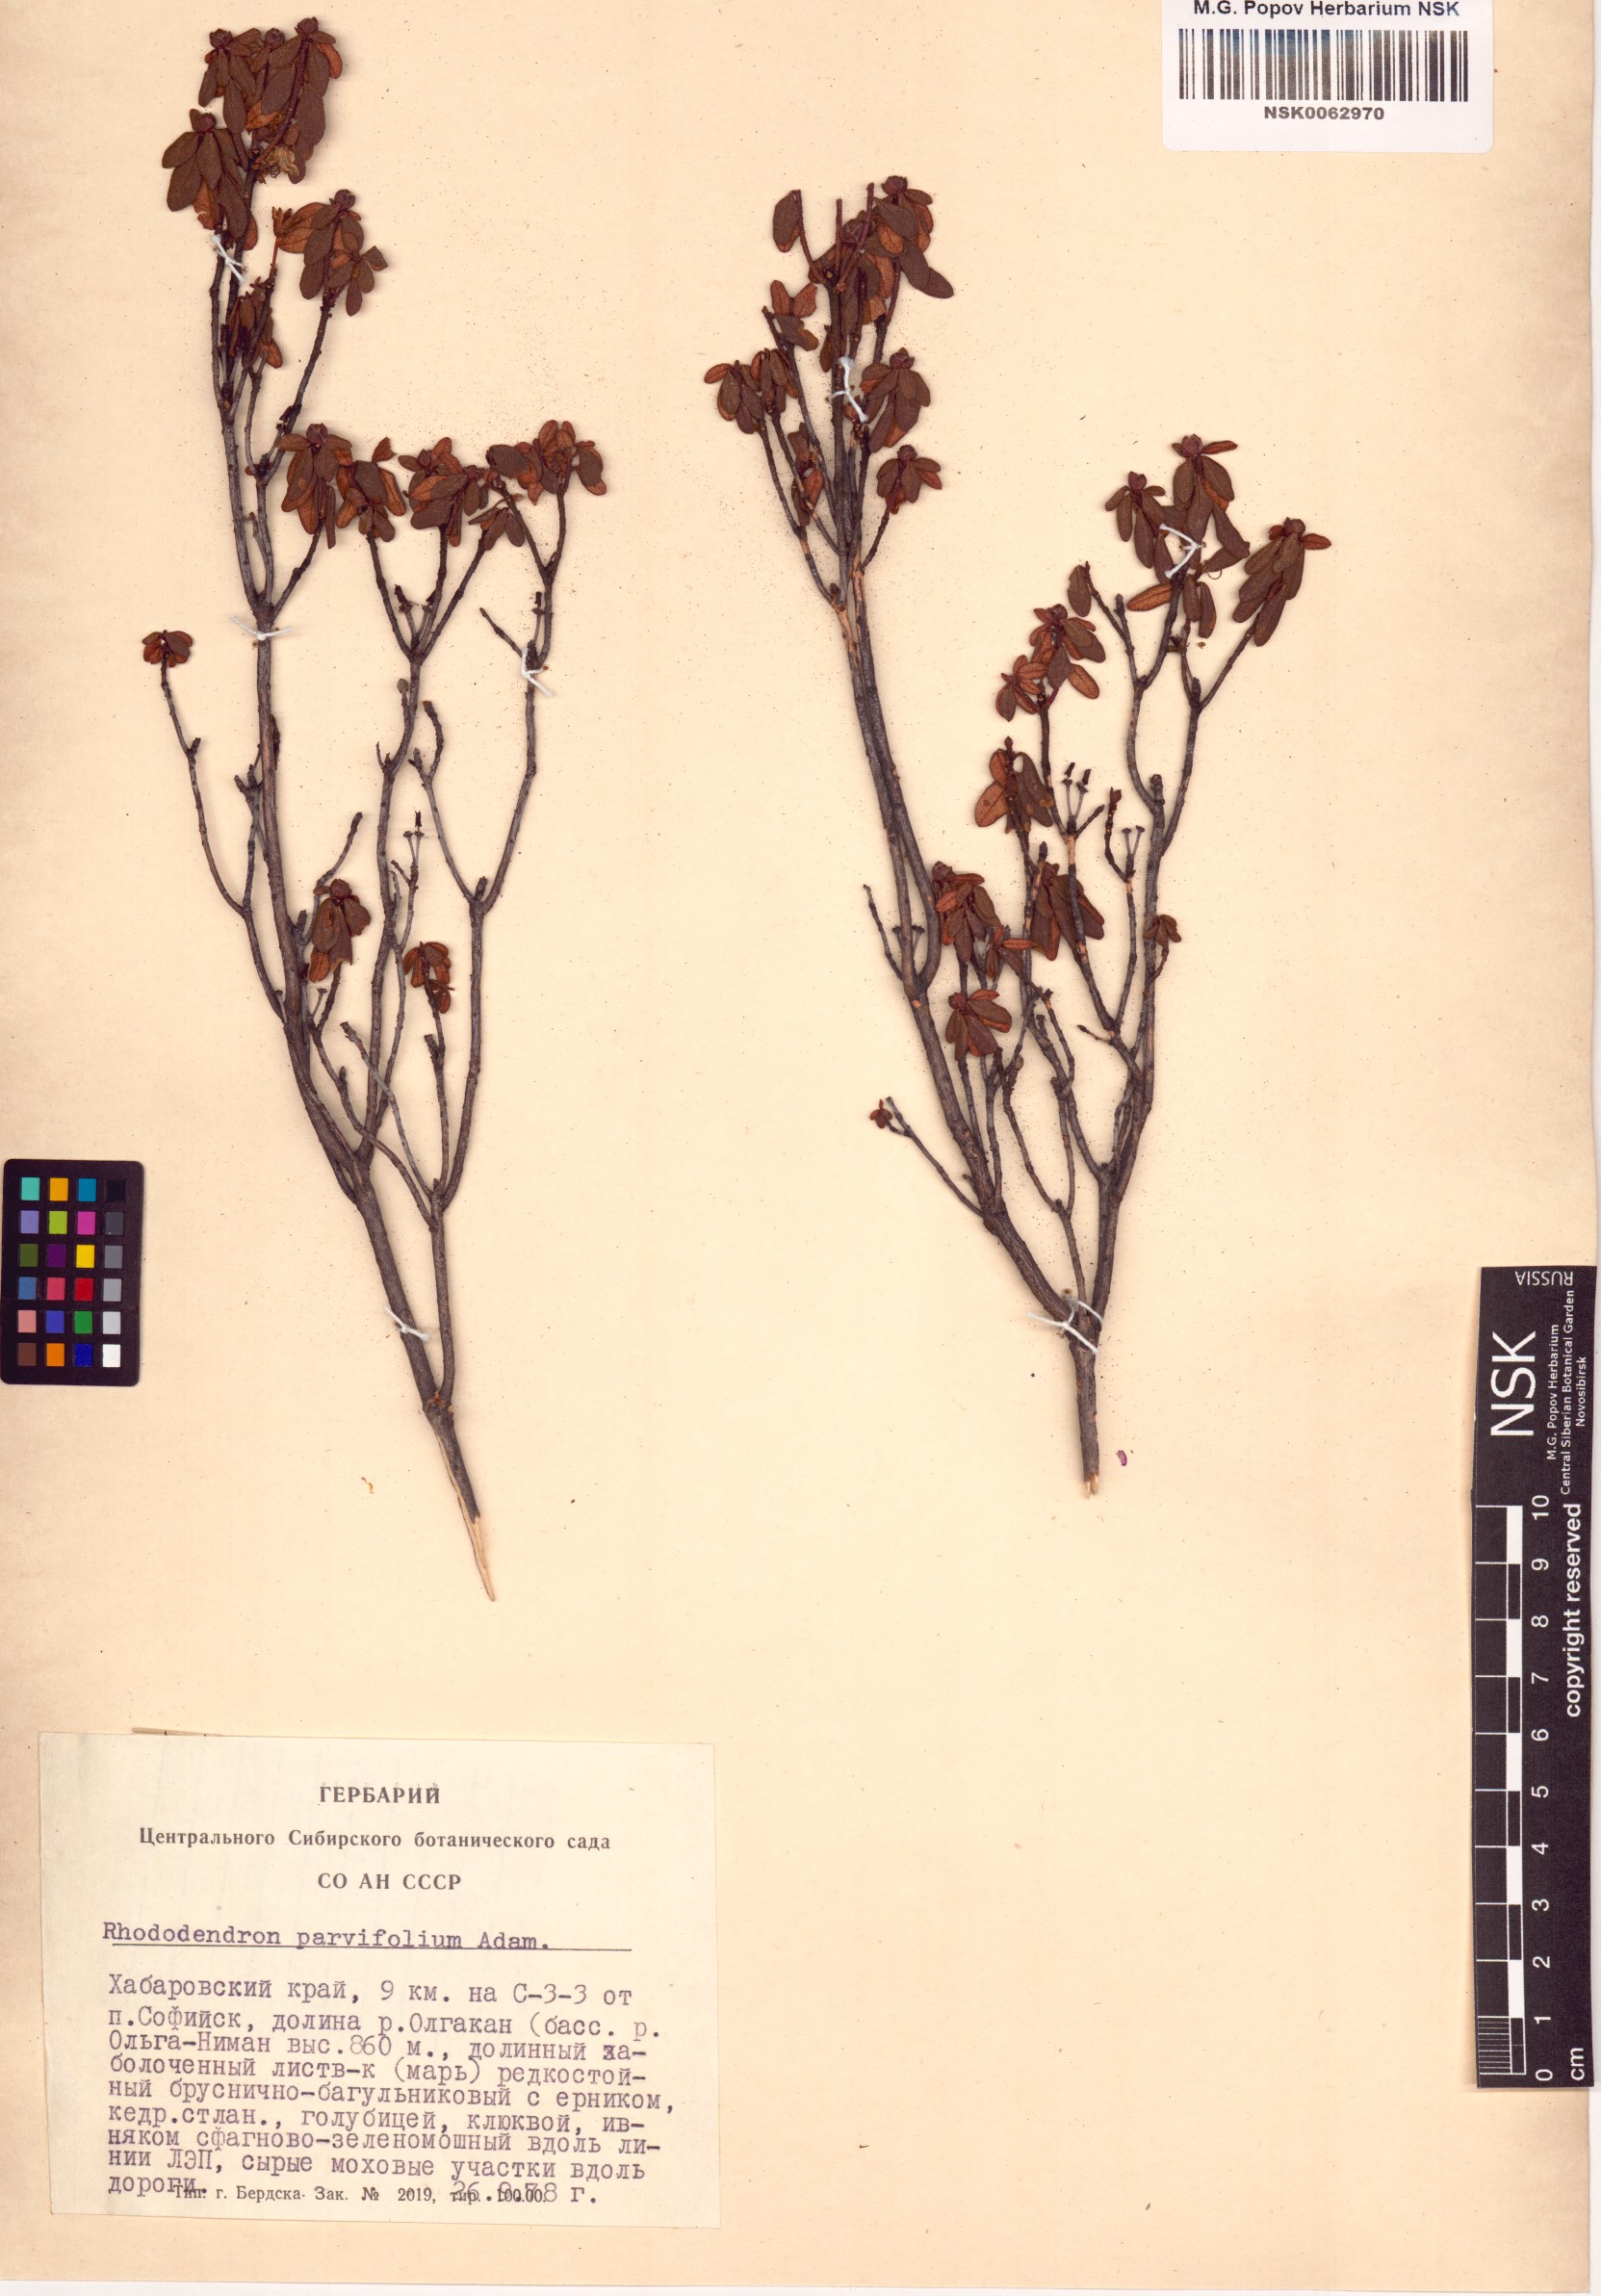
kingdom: Plantae
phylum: Tracheophyta
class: Magnoliopsida
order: Ericales
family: Ericaceae
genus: Rhododendron
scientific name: Rhododendron parvifolium
